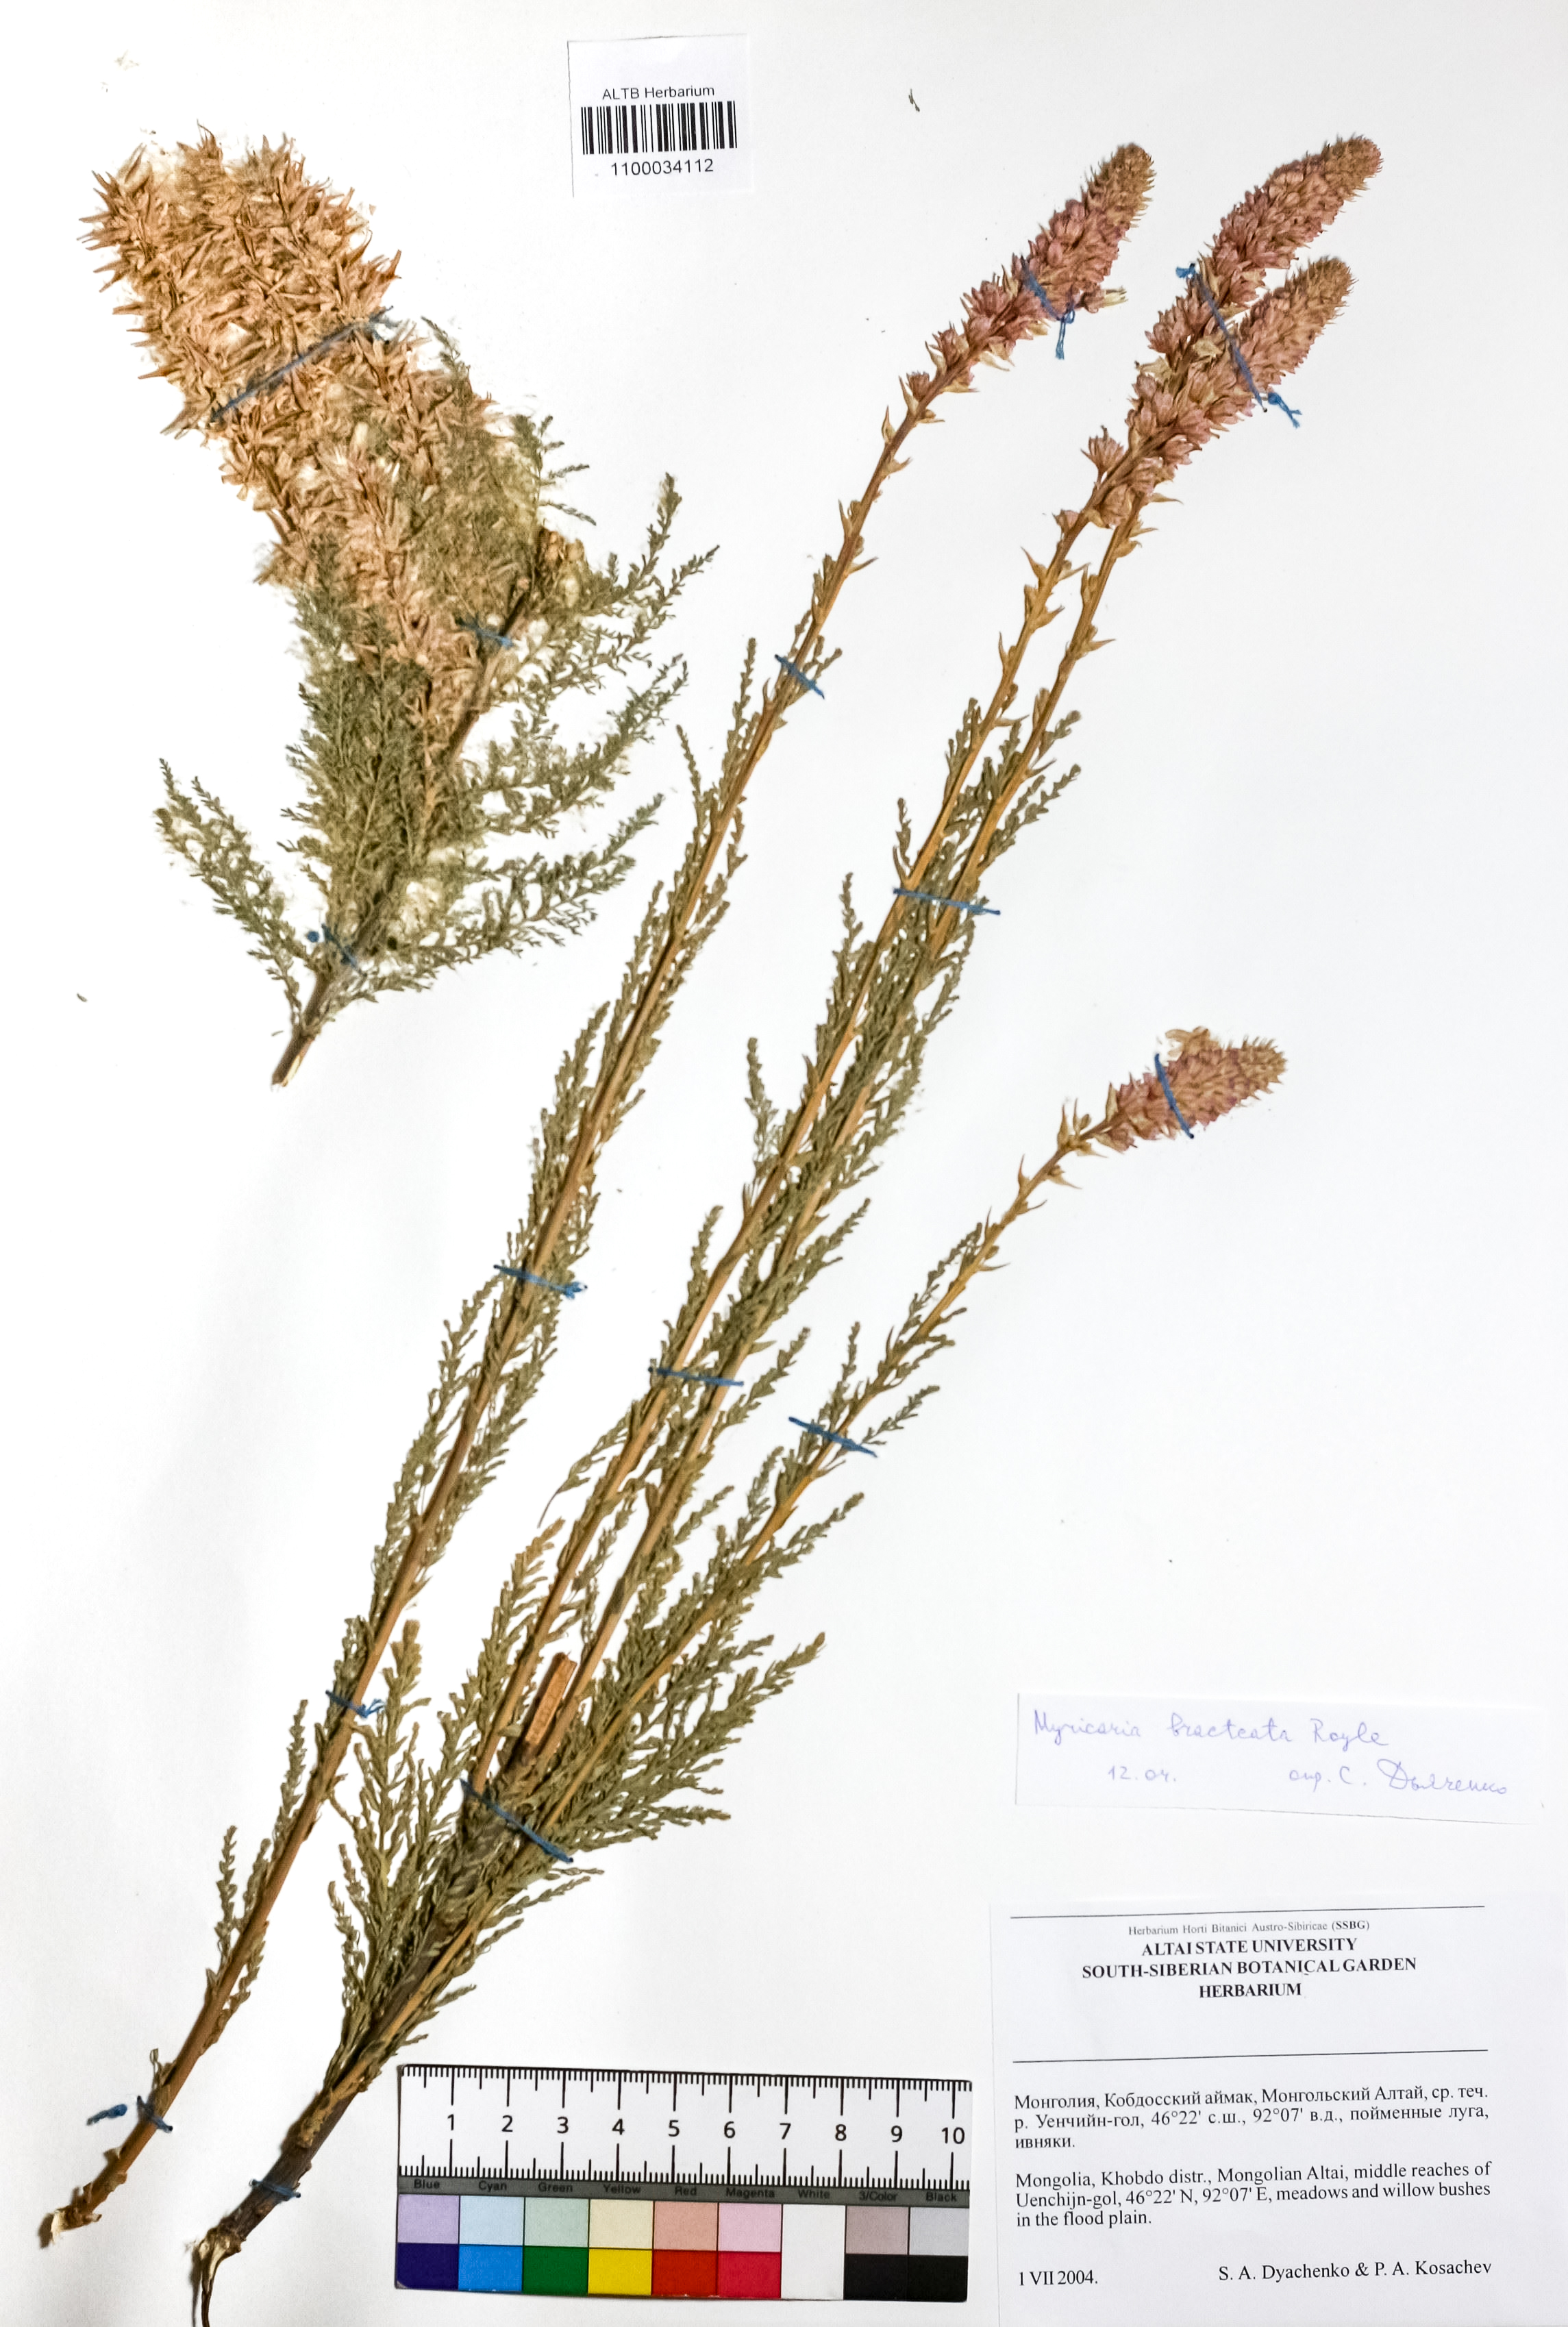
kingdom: Plantae
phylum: Tracheophyta
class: Magnoliopsida
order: Caryophyllales
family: Tamaricaceae
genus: Myricaria
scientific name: Myricaria bracteata
